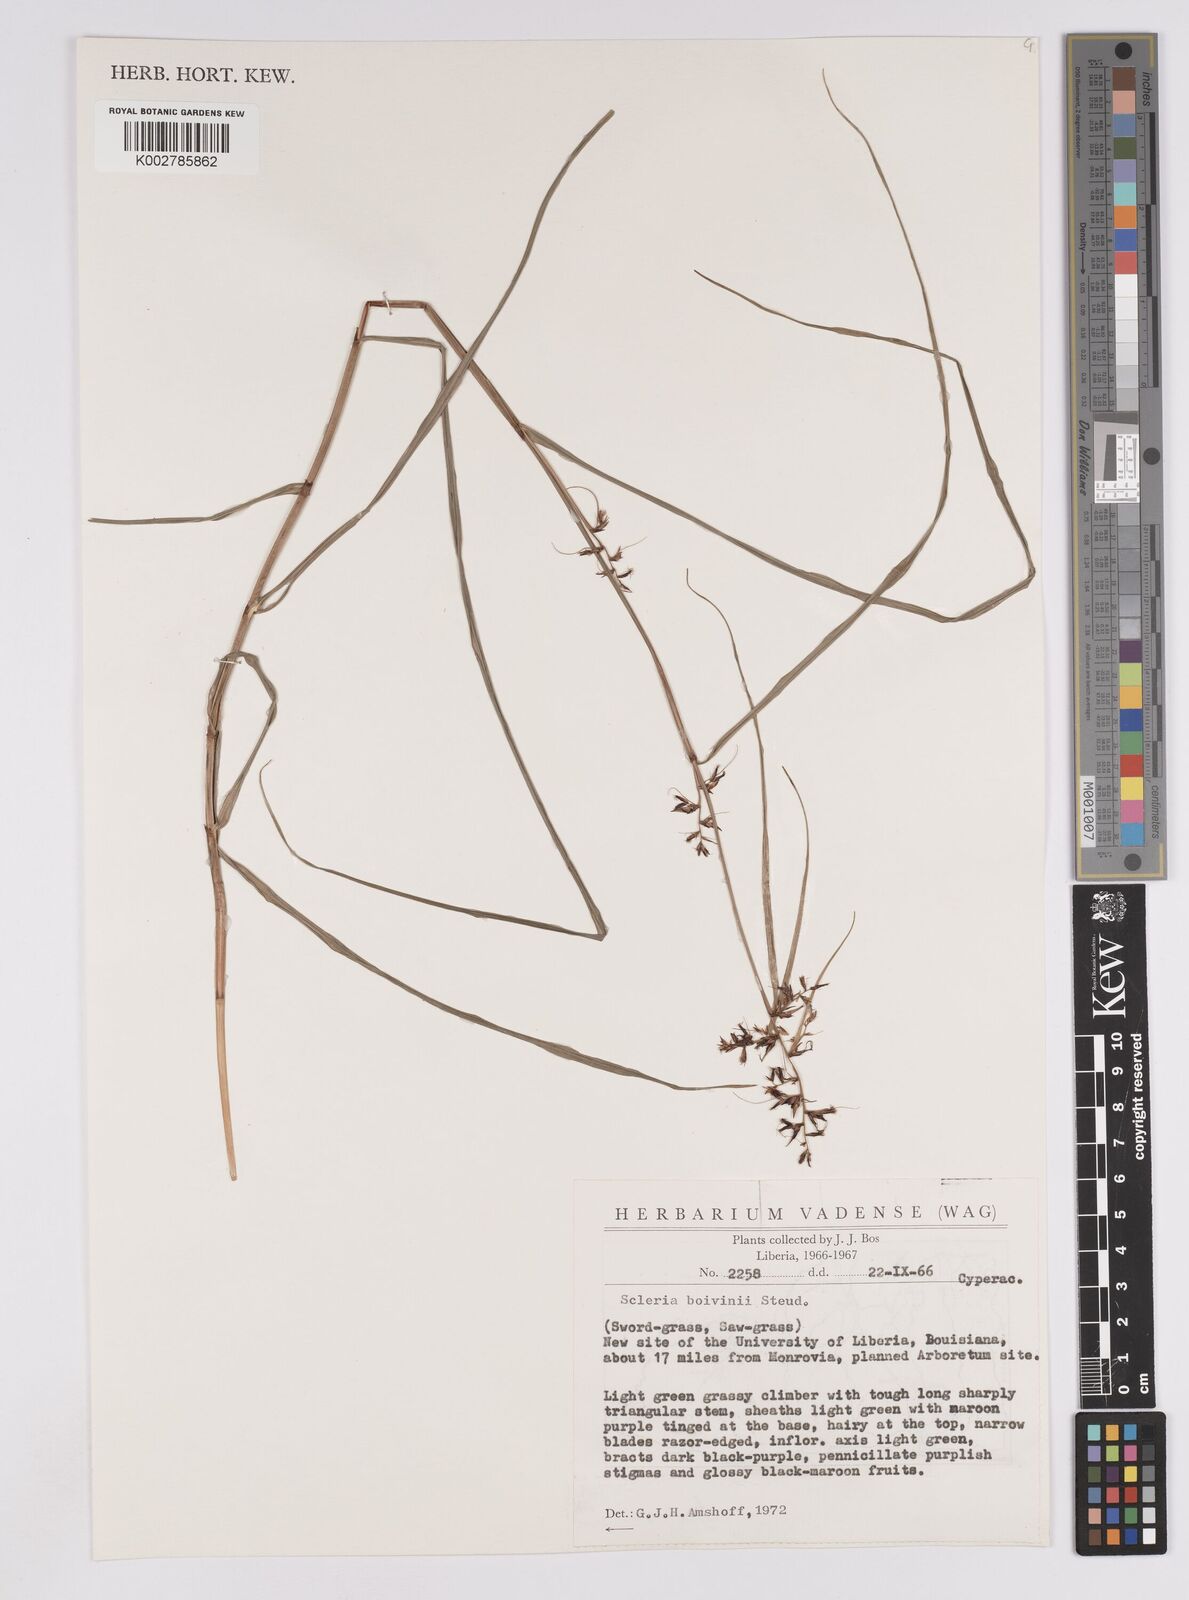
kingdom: Plantae
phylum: Tracheophyta
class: Liliopsida
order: Poales
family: Cyperaceae
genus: Scleria
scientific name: Scleria boivinii
